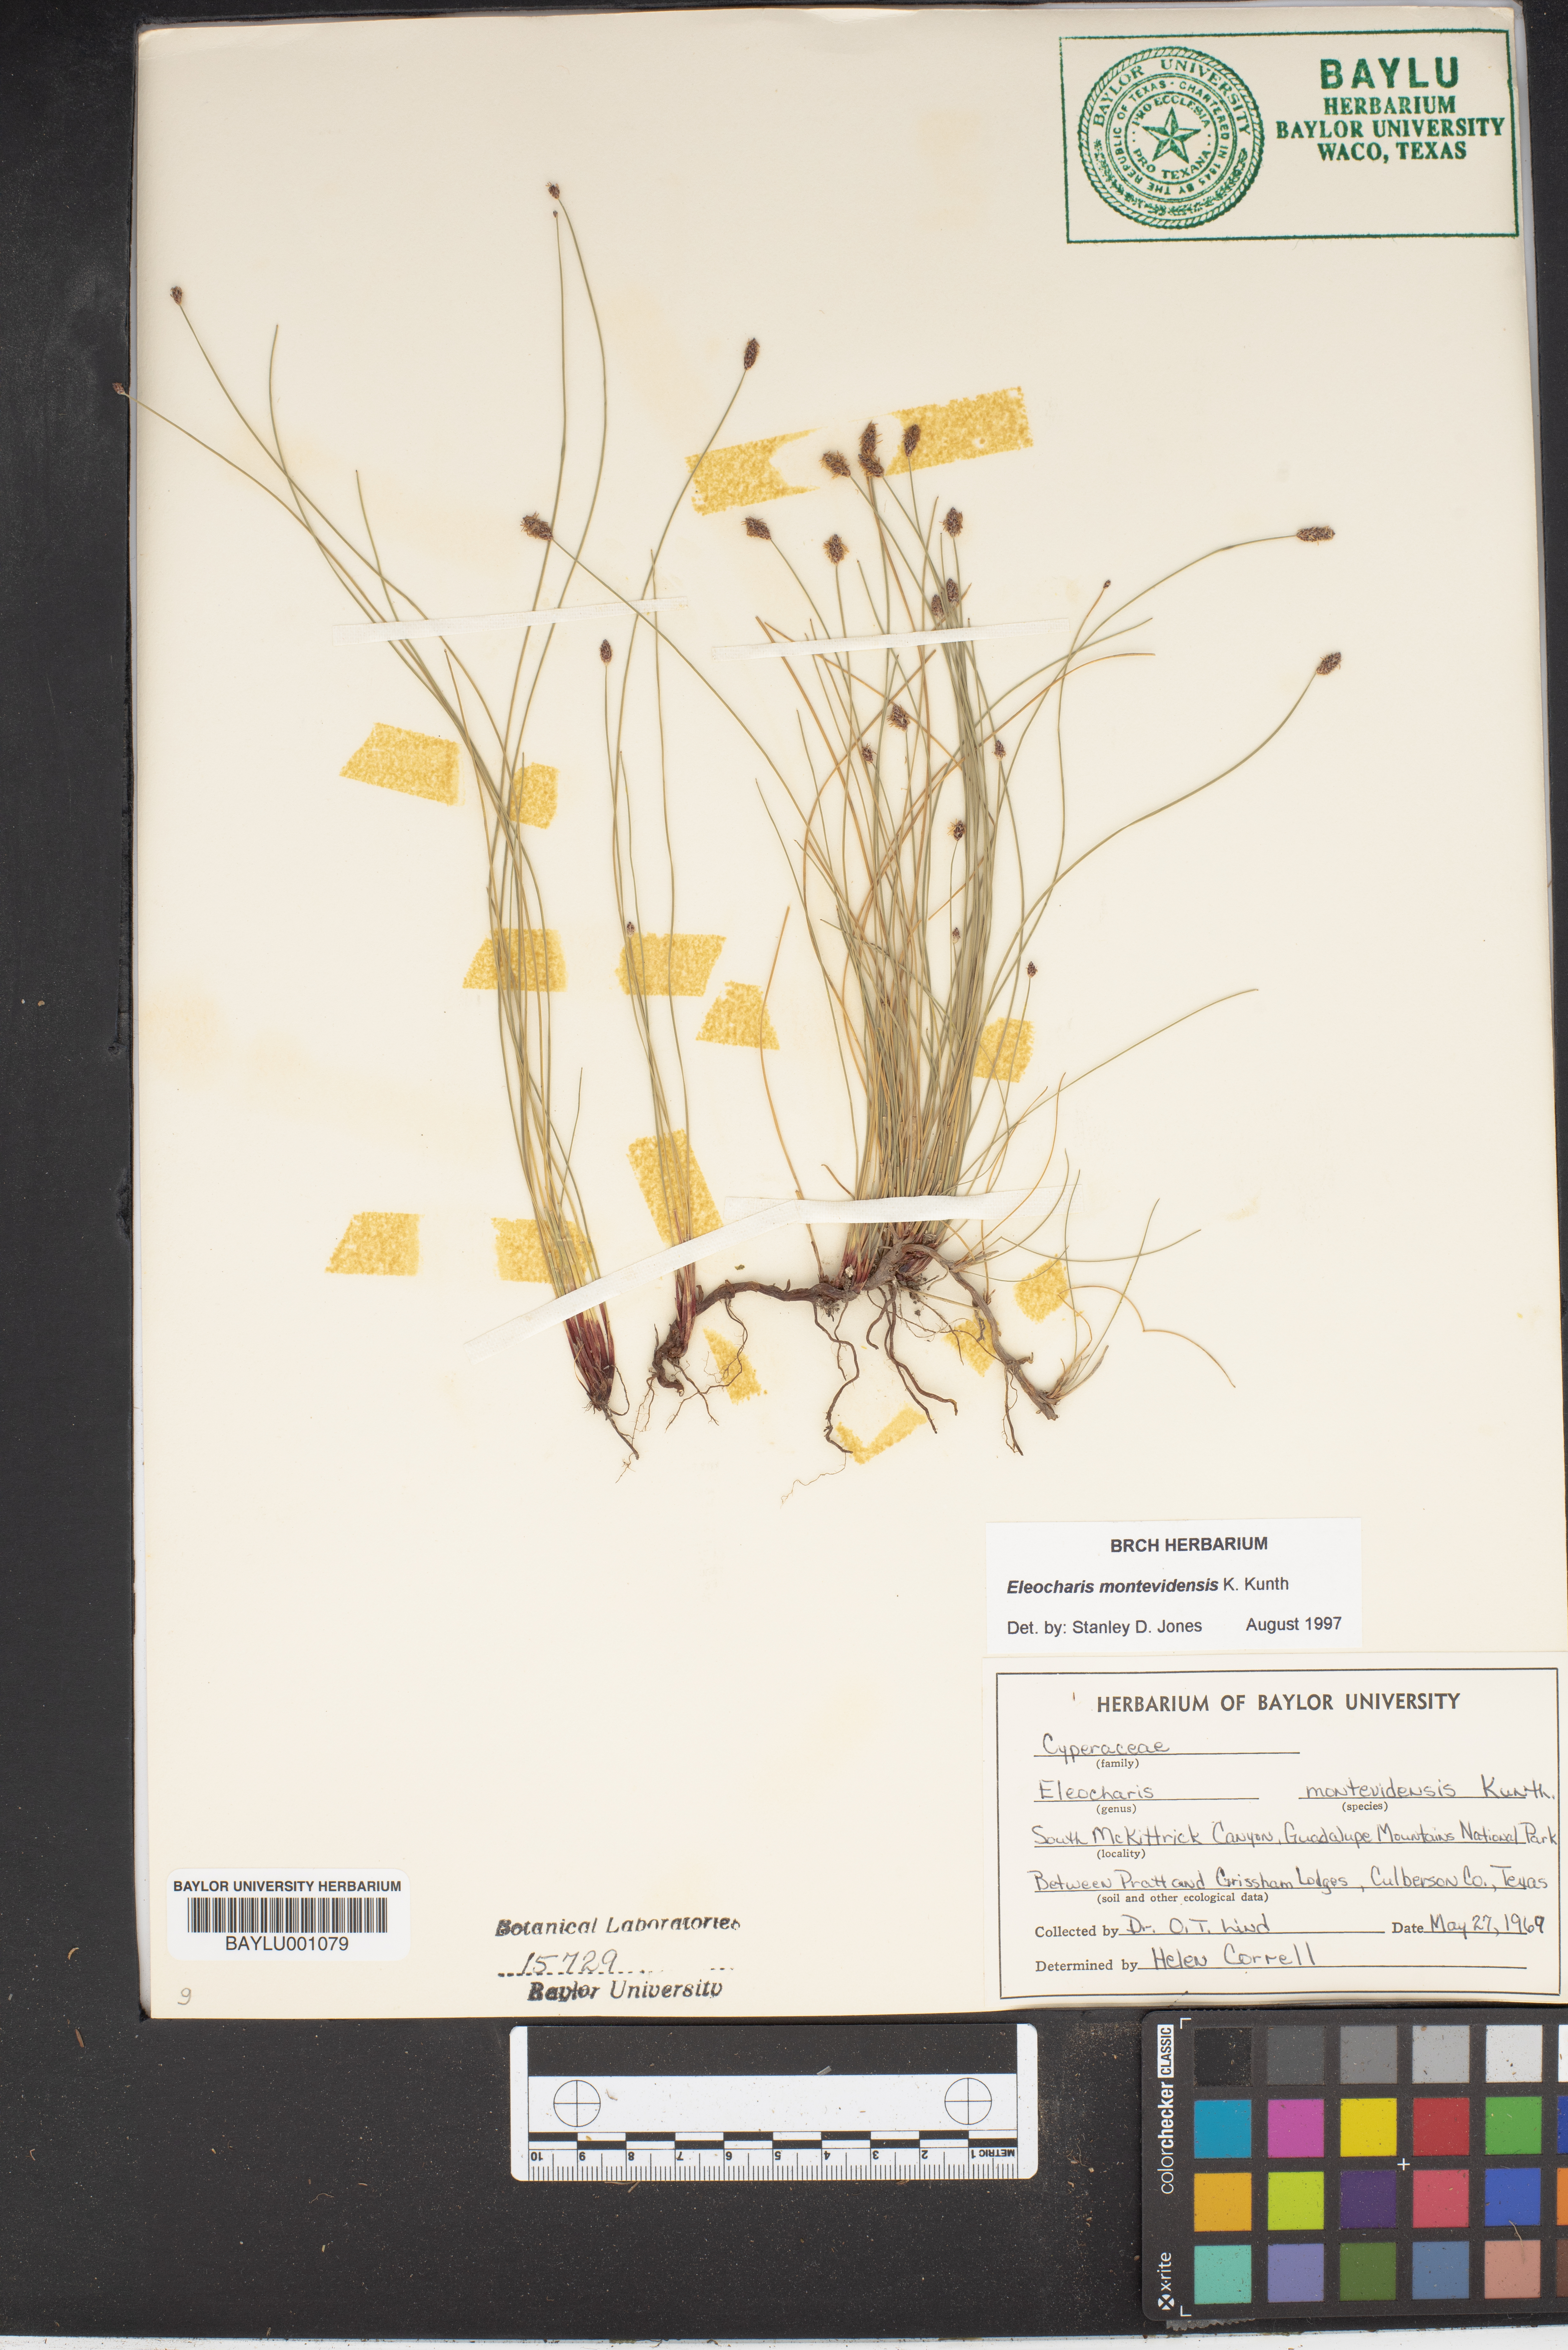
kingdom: Plantae
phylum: Tracheophyta
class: Liliopsida
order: Poales
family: Cyperaceae
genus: Eleocharis
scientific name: Eleocharis montevidensis
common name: Sand spike-rush
